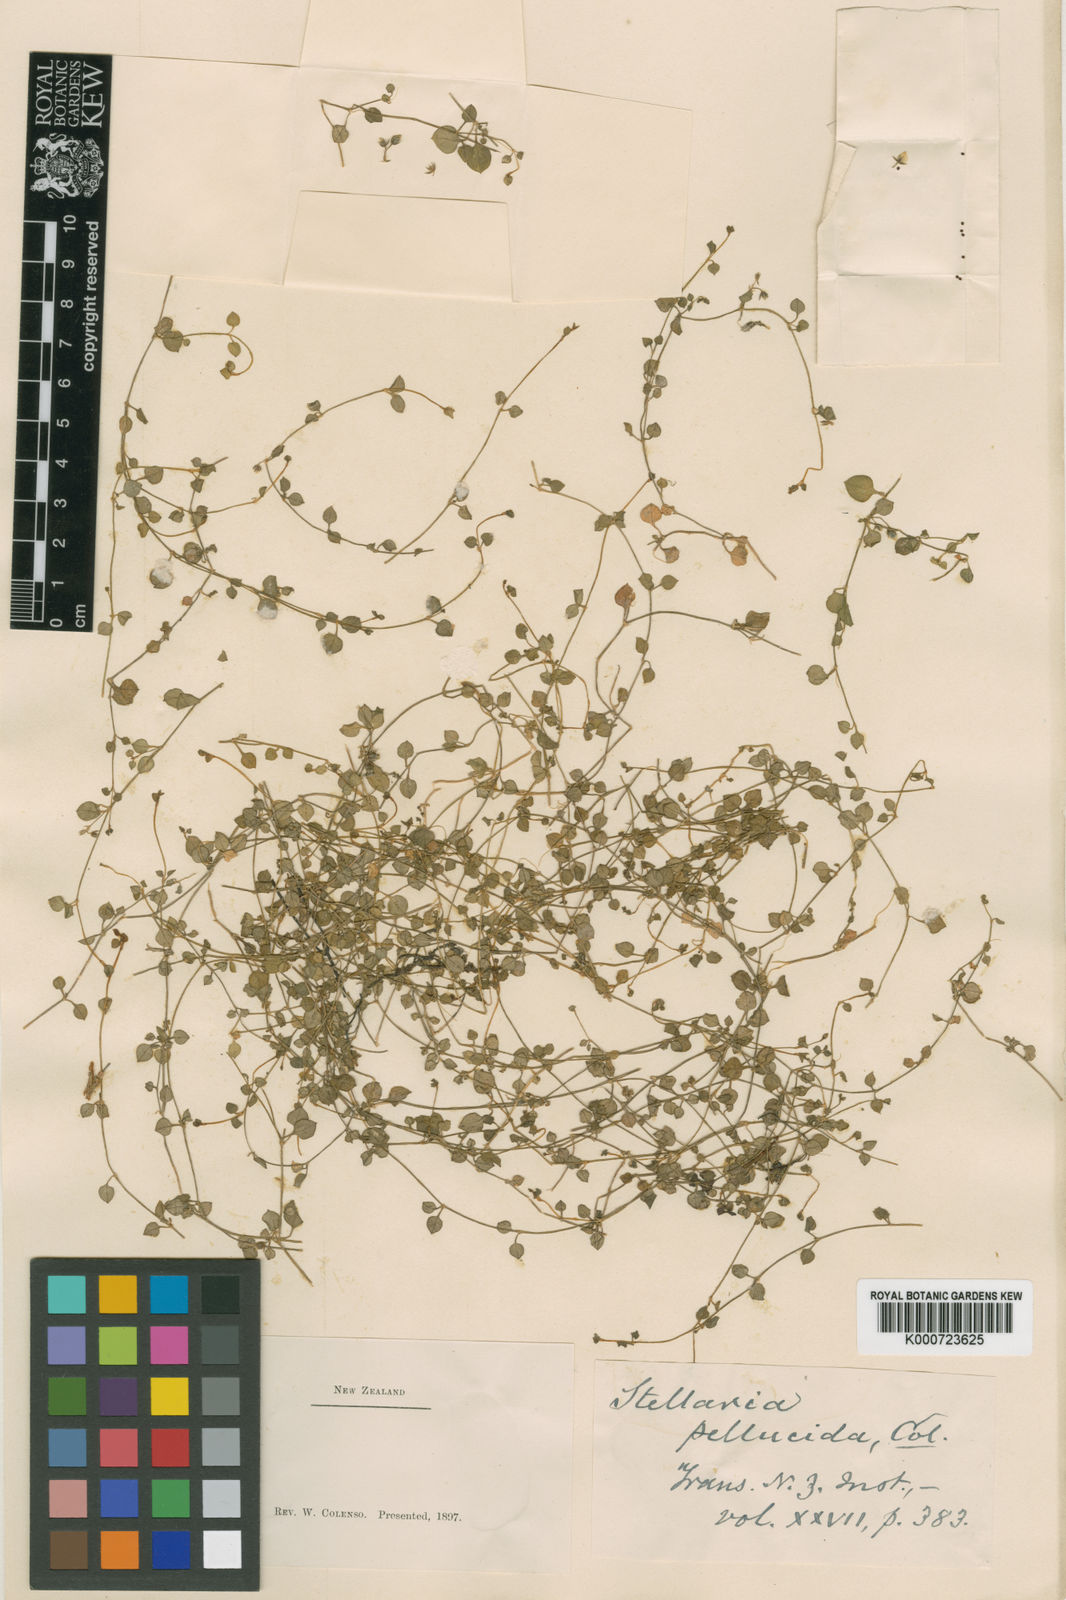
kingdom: Plantae
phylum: Tracheophyta
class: Magnoliopsida
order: Caryophyllales
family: Caryophyllaceae
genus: Stellaria
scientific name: Stellaria parviflora
